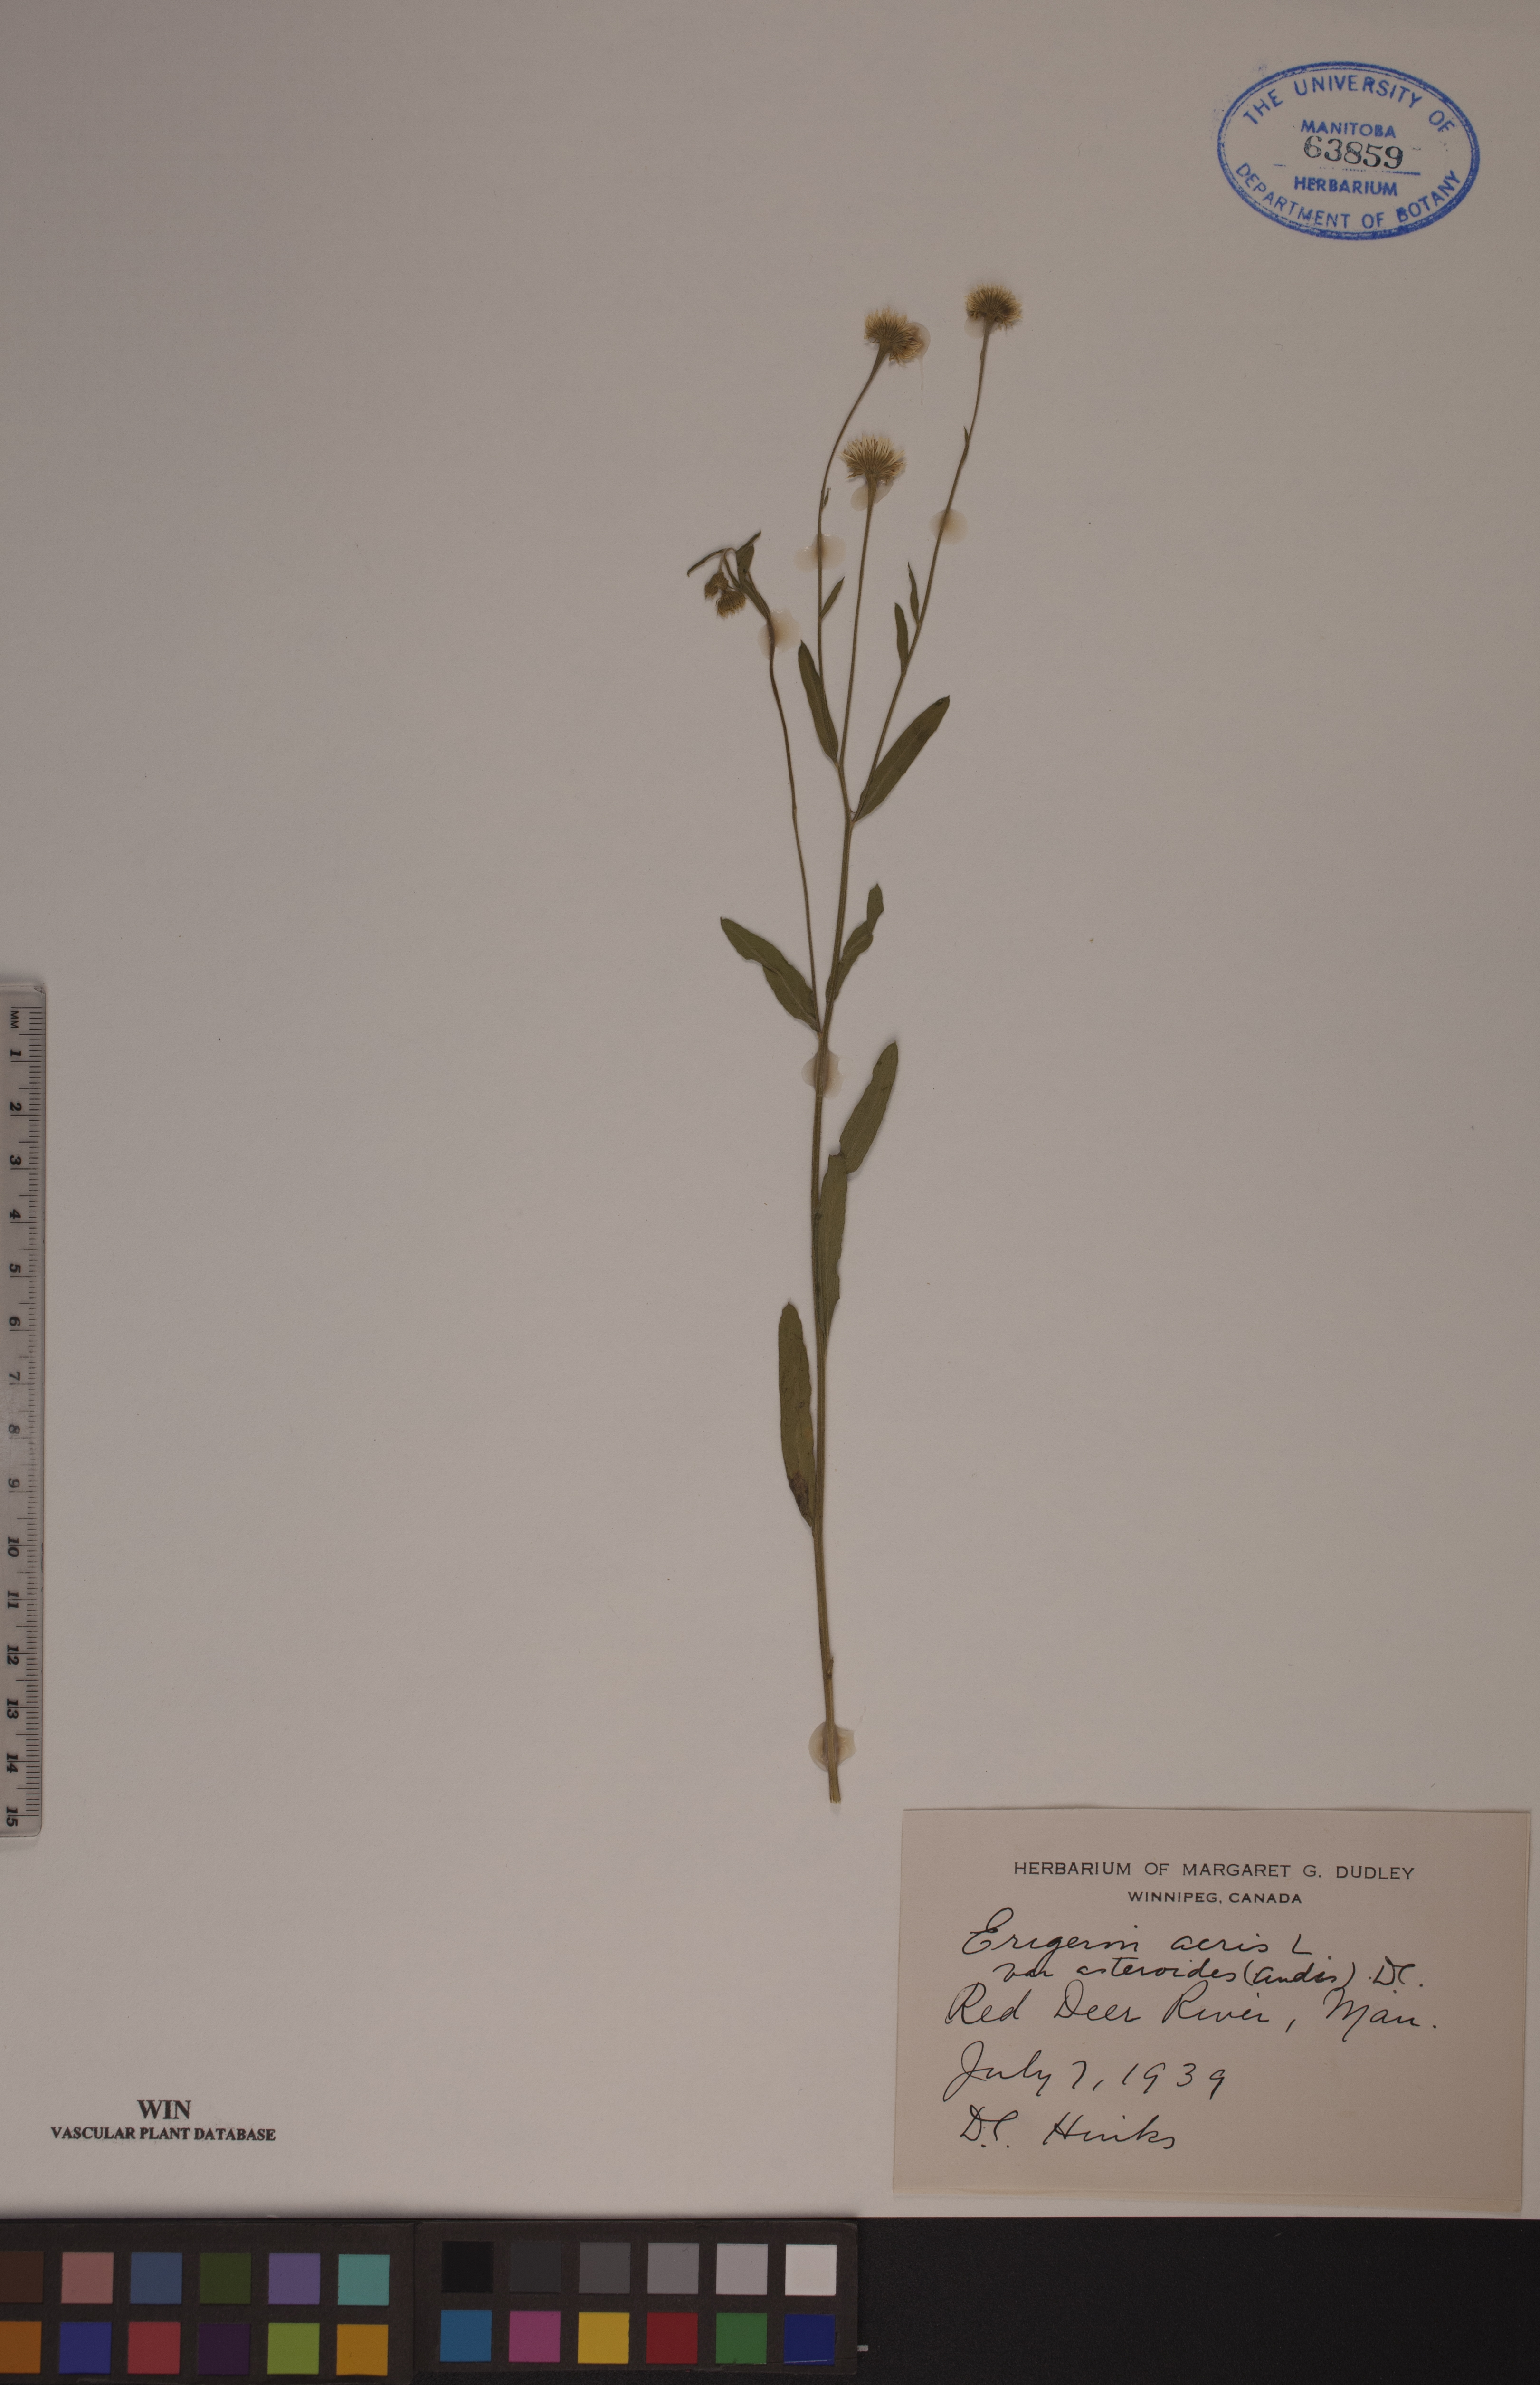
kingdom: Plantae
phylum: Tracheophyta
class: Magnoliopsida
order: Asterales
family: Asteraceae
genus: Erigeron
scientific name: Erigeron podolicus
